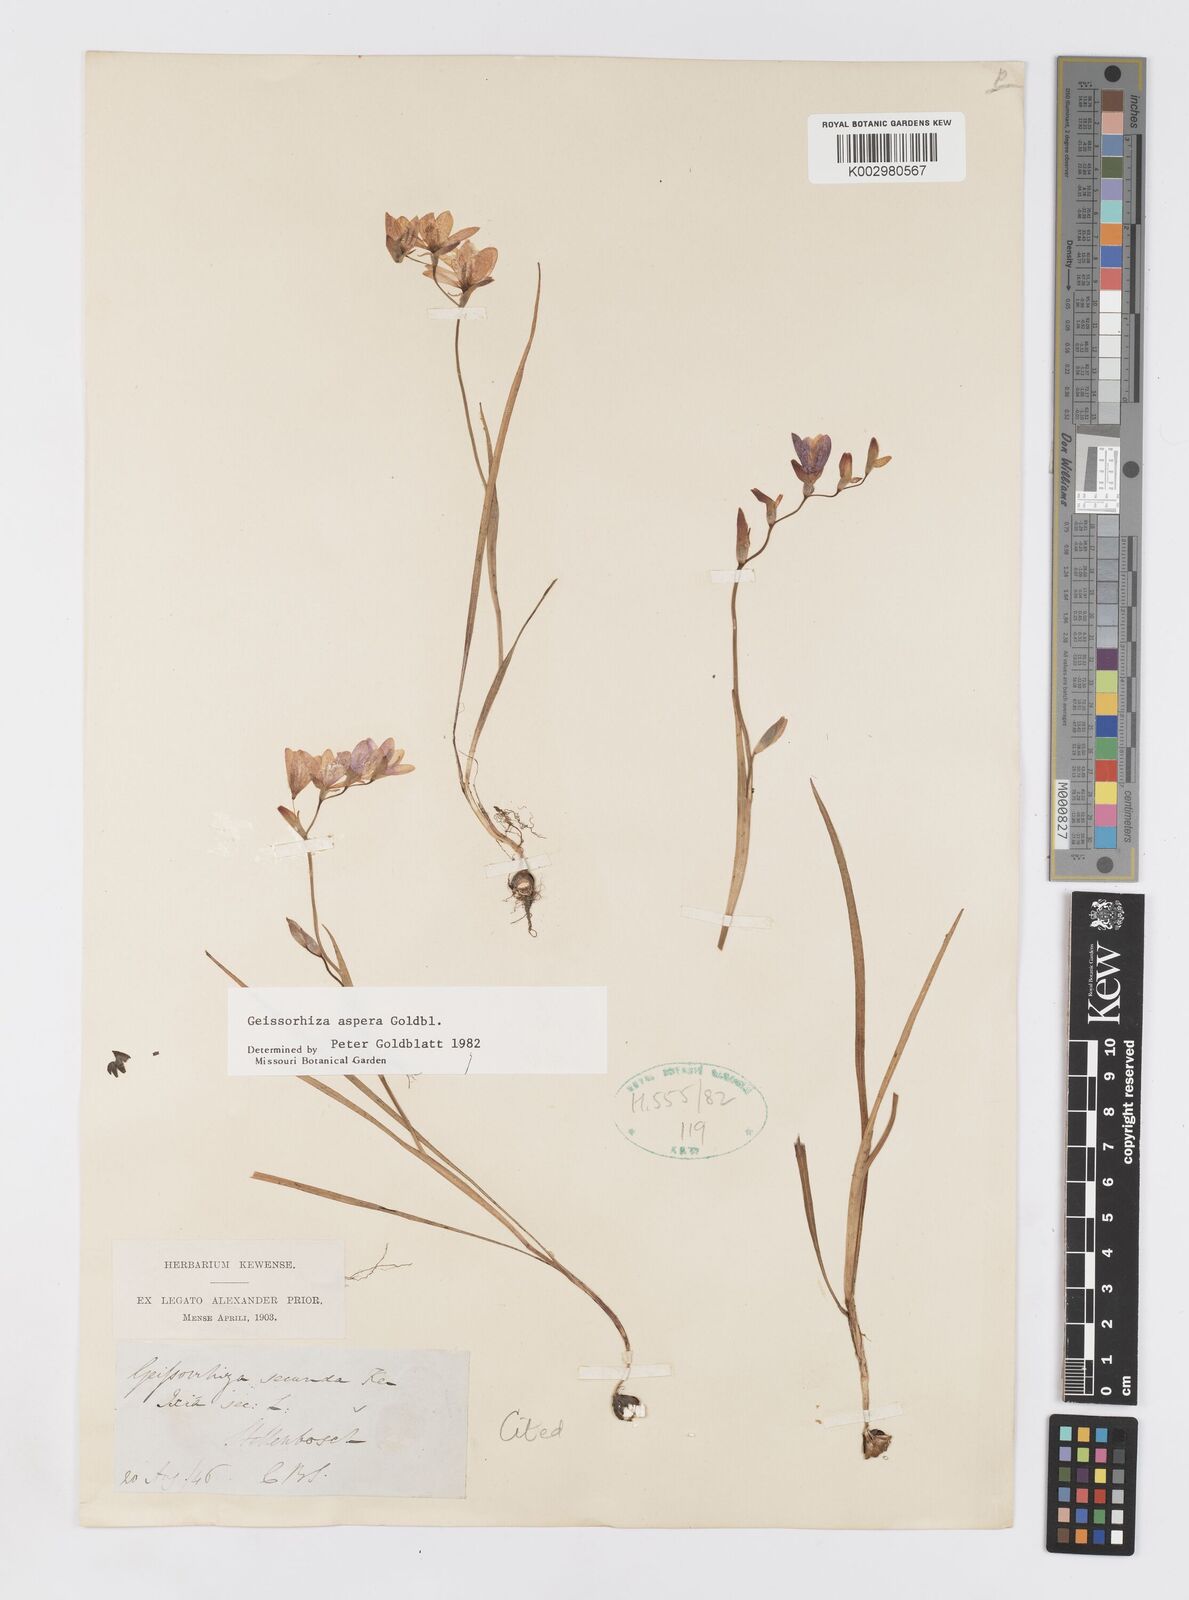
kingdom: Plantae
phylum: Tracheophyta
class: Liliopsida
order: Asparagales
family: Iridaceae
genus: Geissorhiza
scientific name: Geissorhiza aspera
